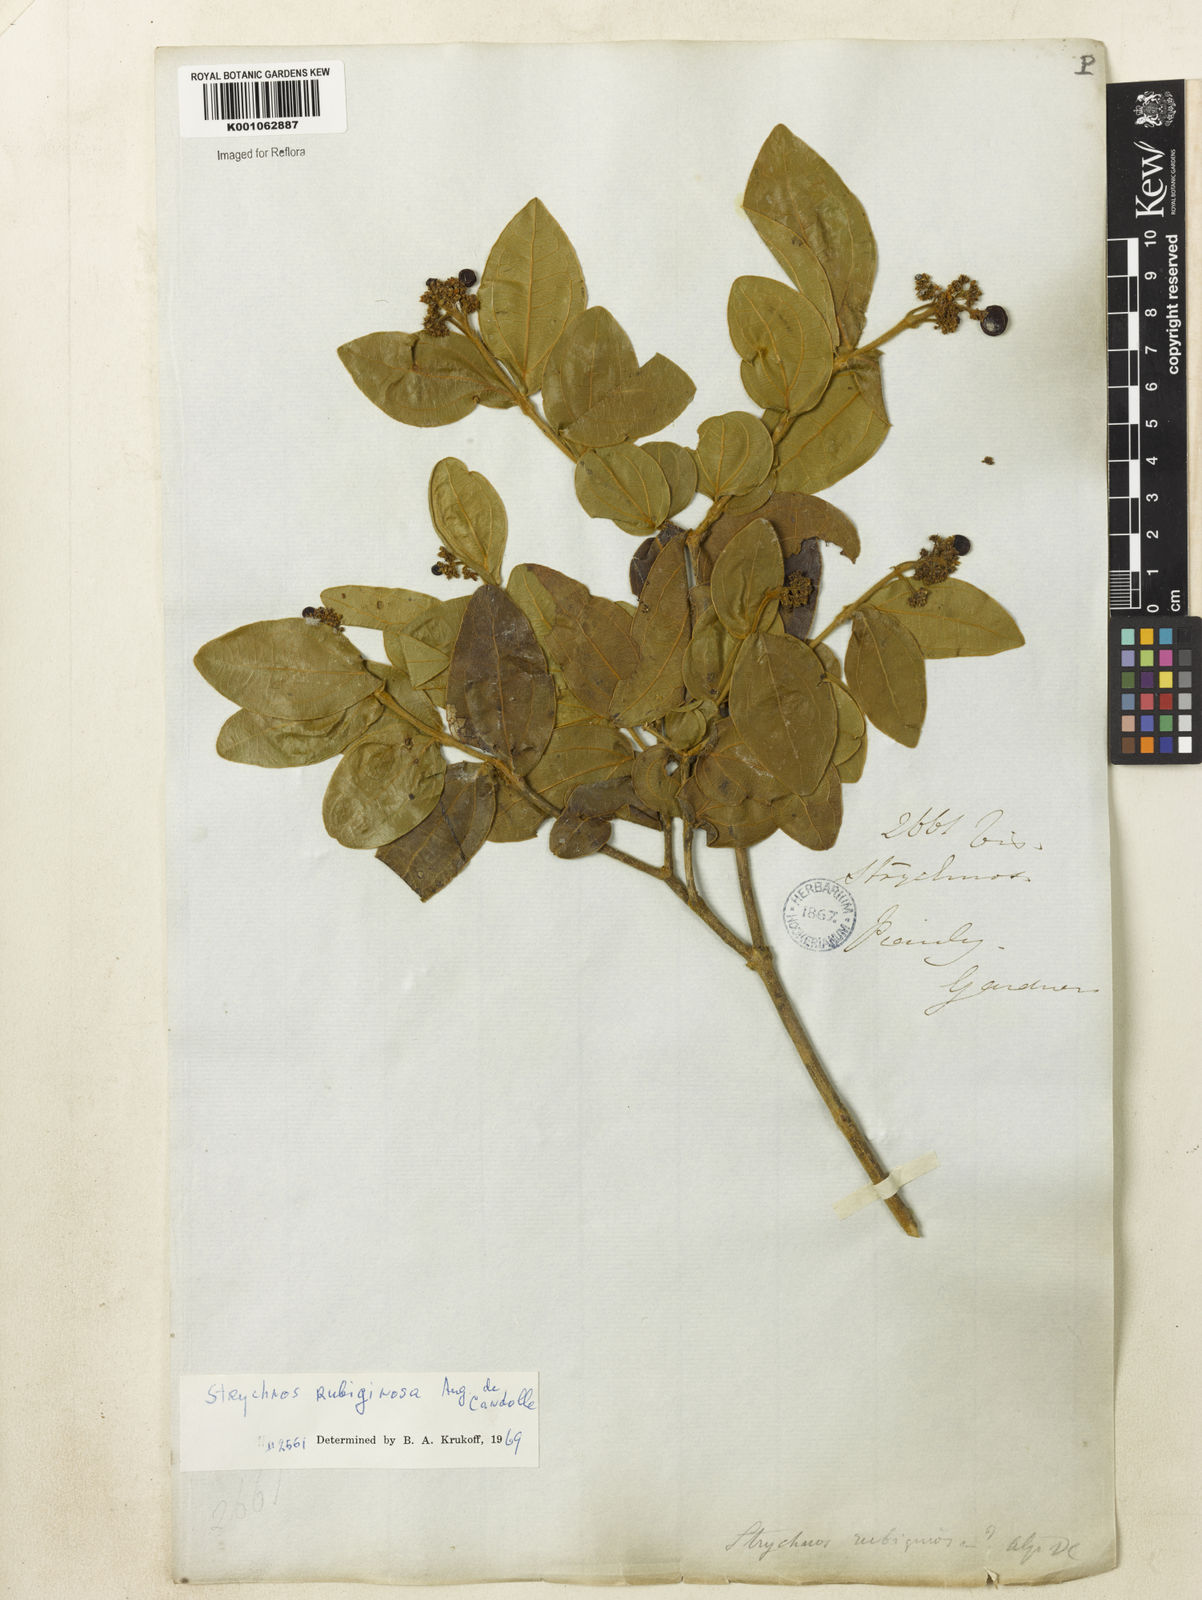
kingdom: Plantae
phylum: Tracheophyta
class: Magnoliopsida
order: Gentianales
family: Loganiaceae
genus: Strychnos
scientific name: Strychnos rubiginosa
